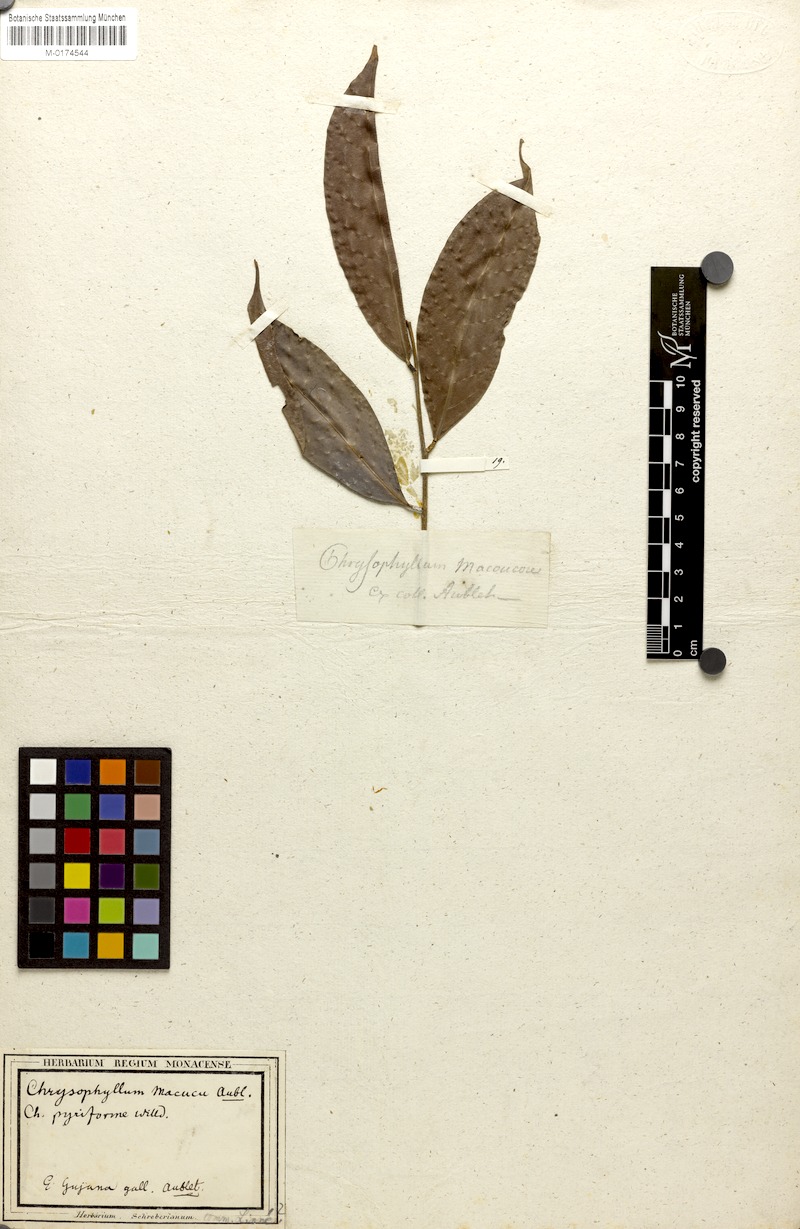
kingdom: Plantae
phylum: Tracheophyta
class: Magnoliopsida
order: Ericales
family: Sapotaceae
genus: Chrysophyllum
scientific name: Chrysophyllum macoucou
